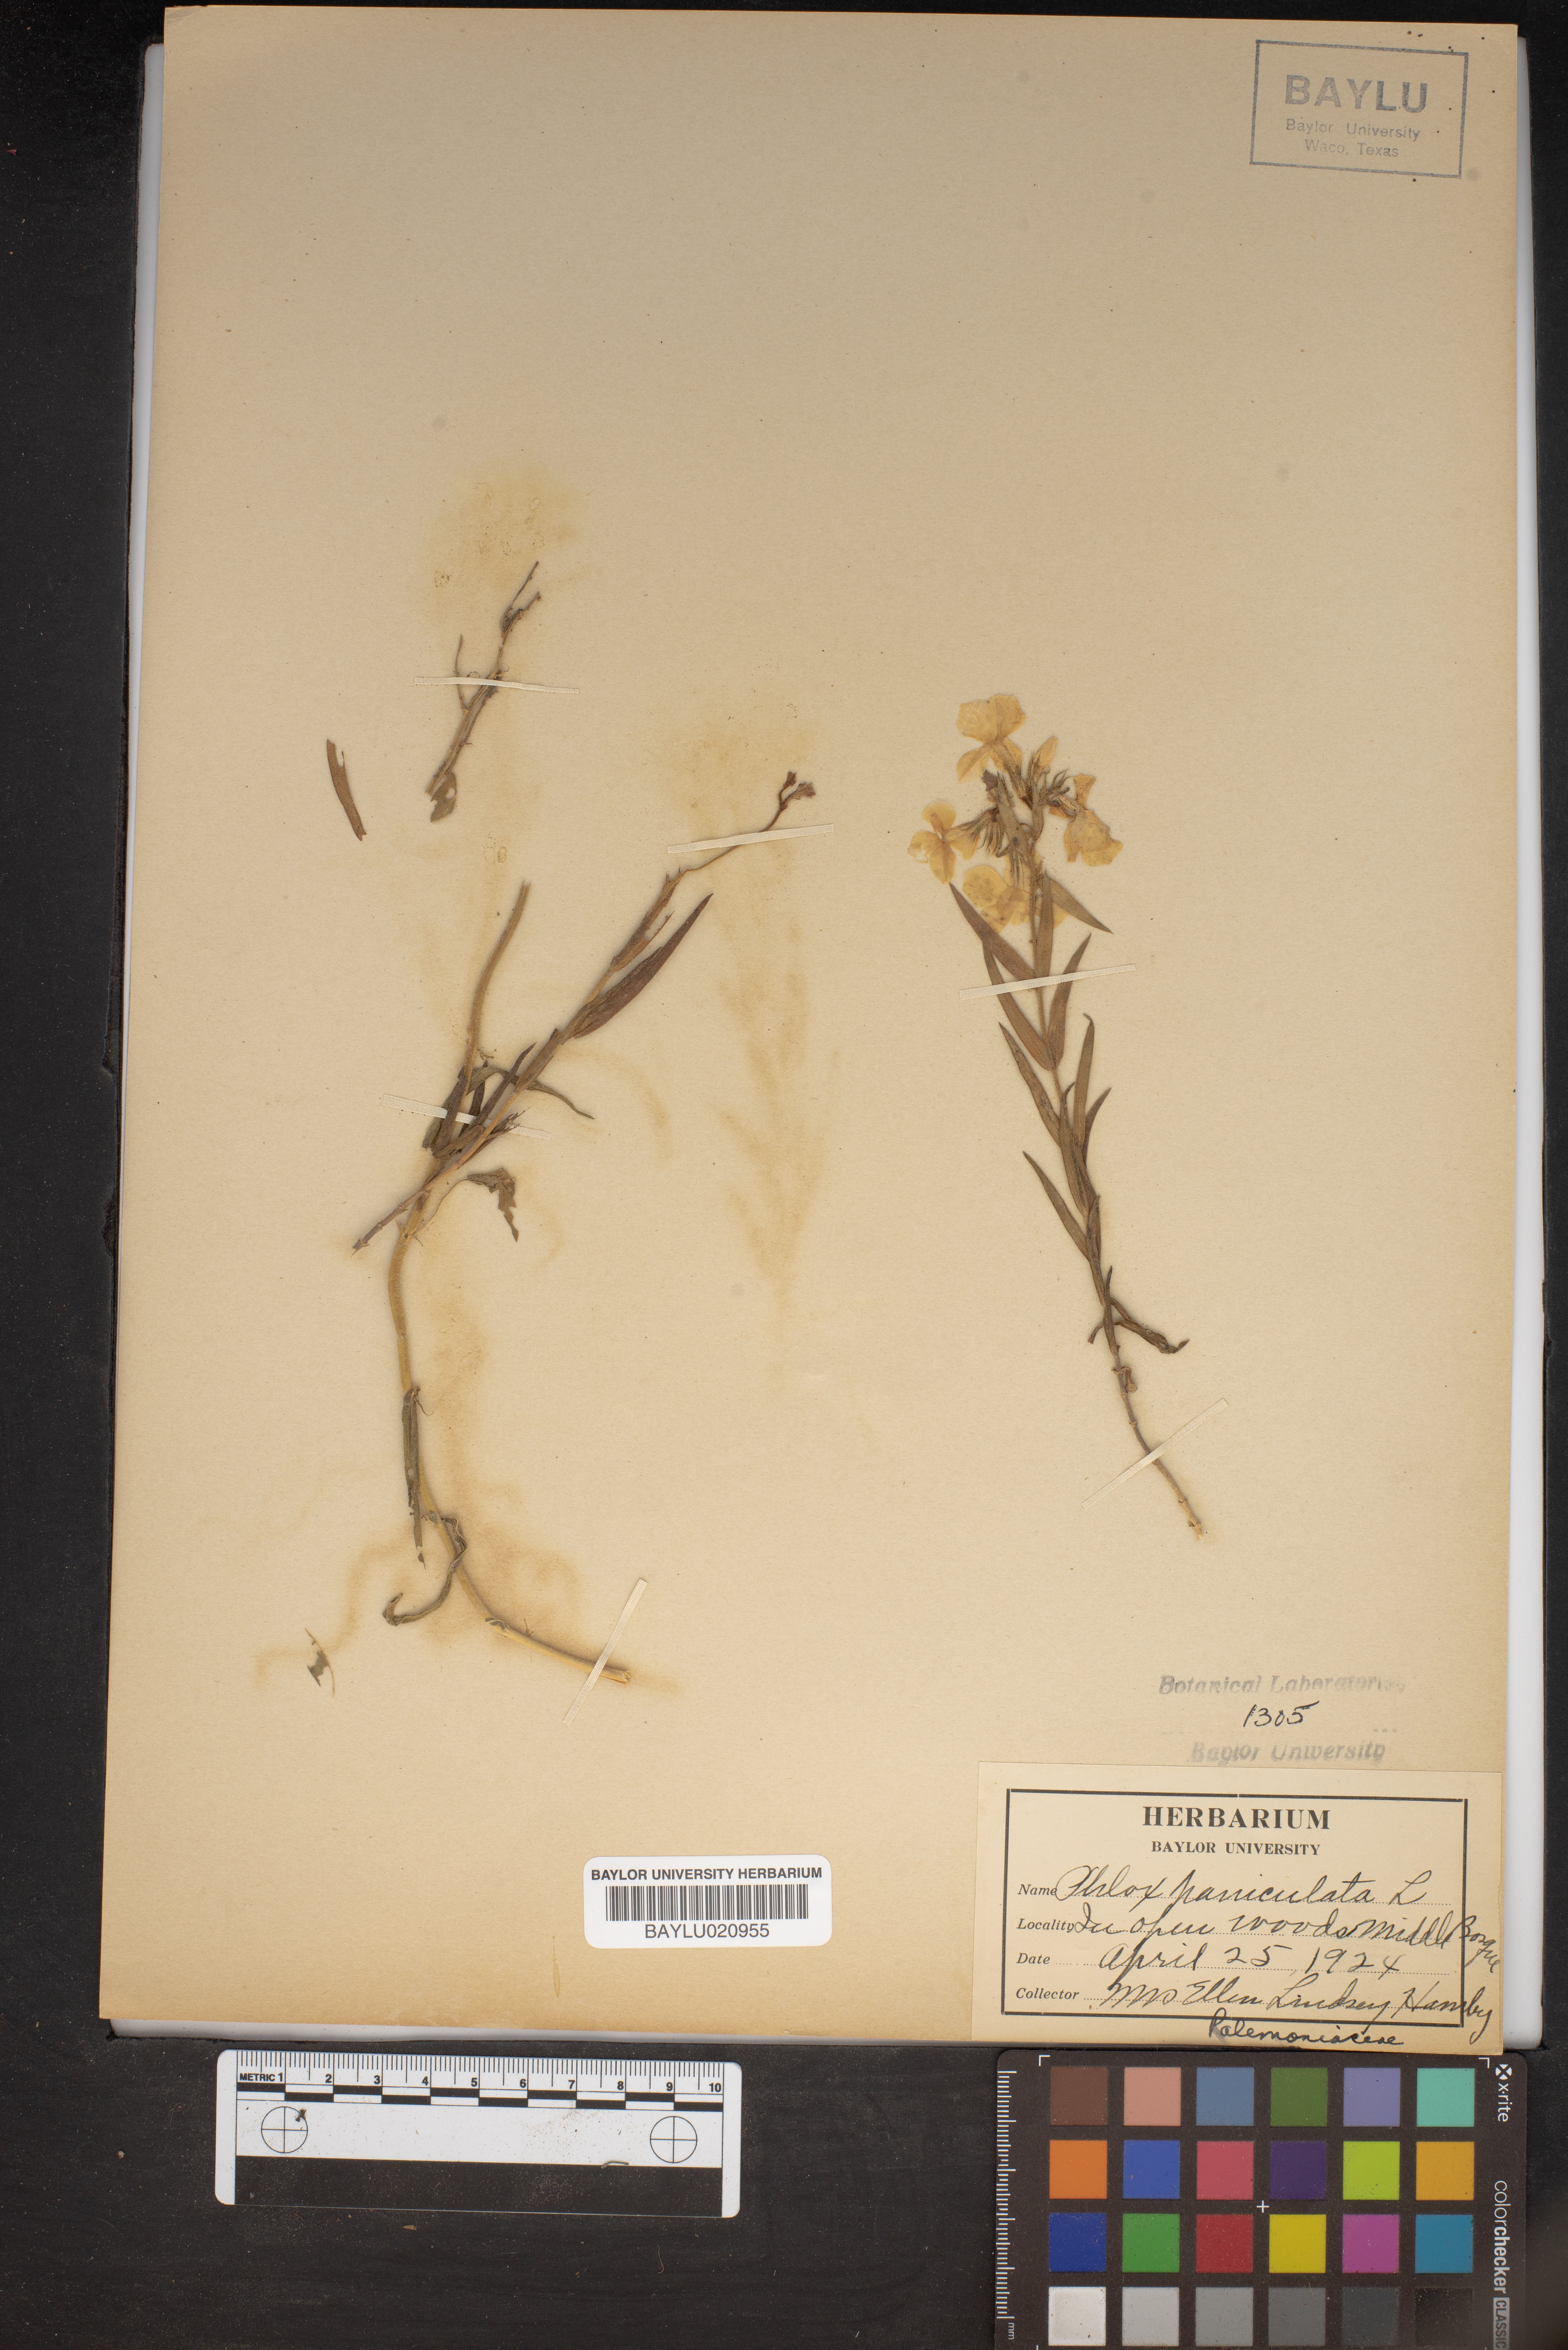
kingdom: Plantae
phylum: Tracheophyta
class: Magnoliopsida
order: Ericales
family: Polemoniaceae
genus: Phlox
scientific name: Phlox paniculata
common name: Fall phlox
